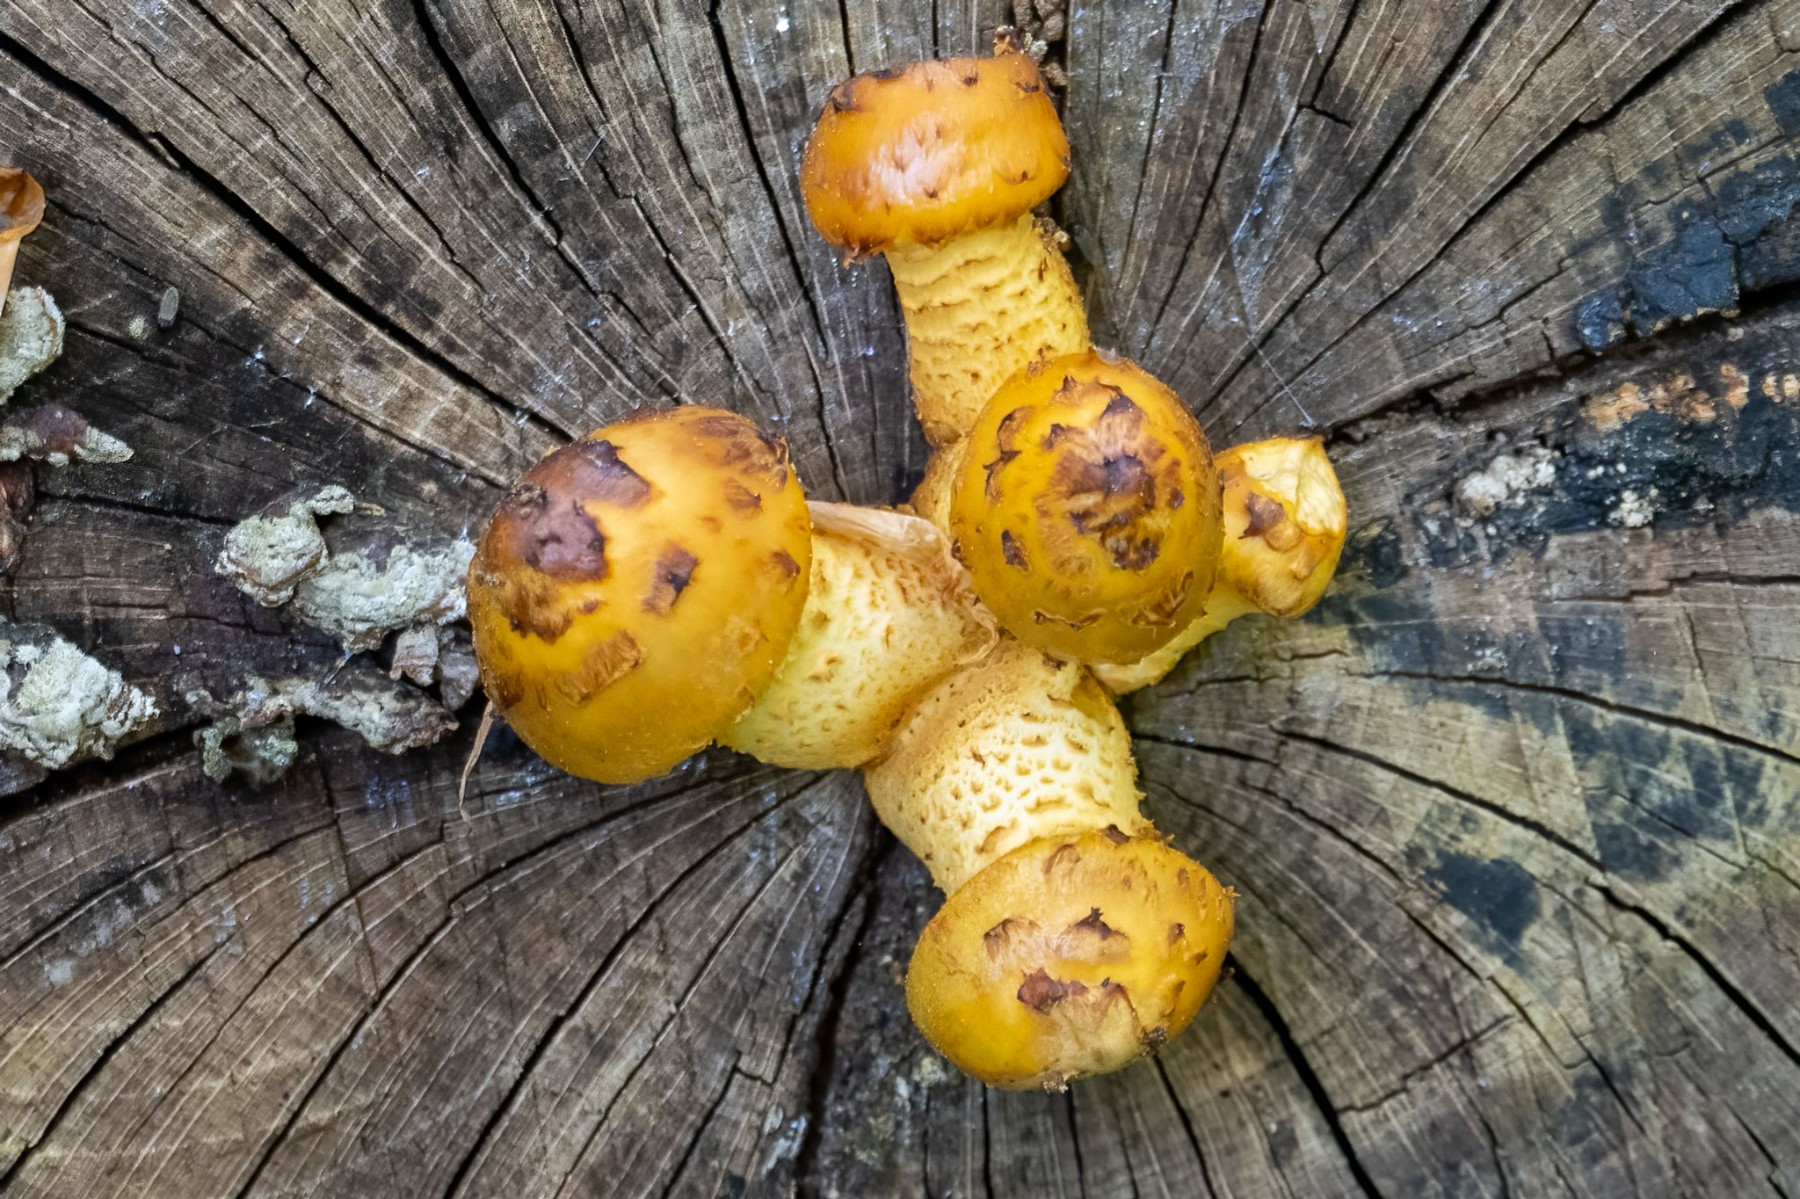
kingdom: Fungi
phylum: Basidiomycota
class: Agaricomycetes
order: Agaricales
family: Strophariaceae
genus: Pholiota
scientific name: Pholiota adiposa
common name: højtsiddende skælhat
